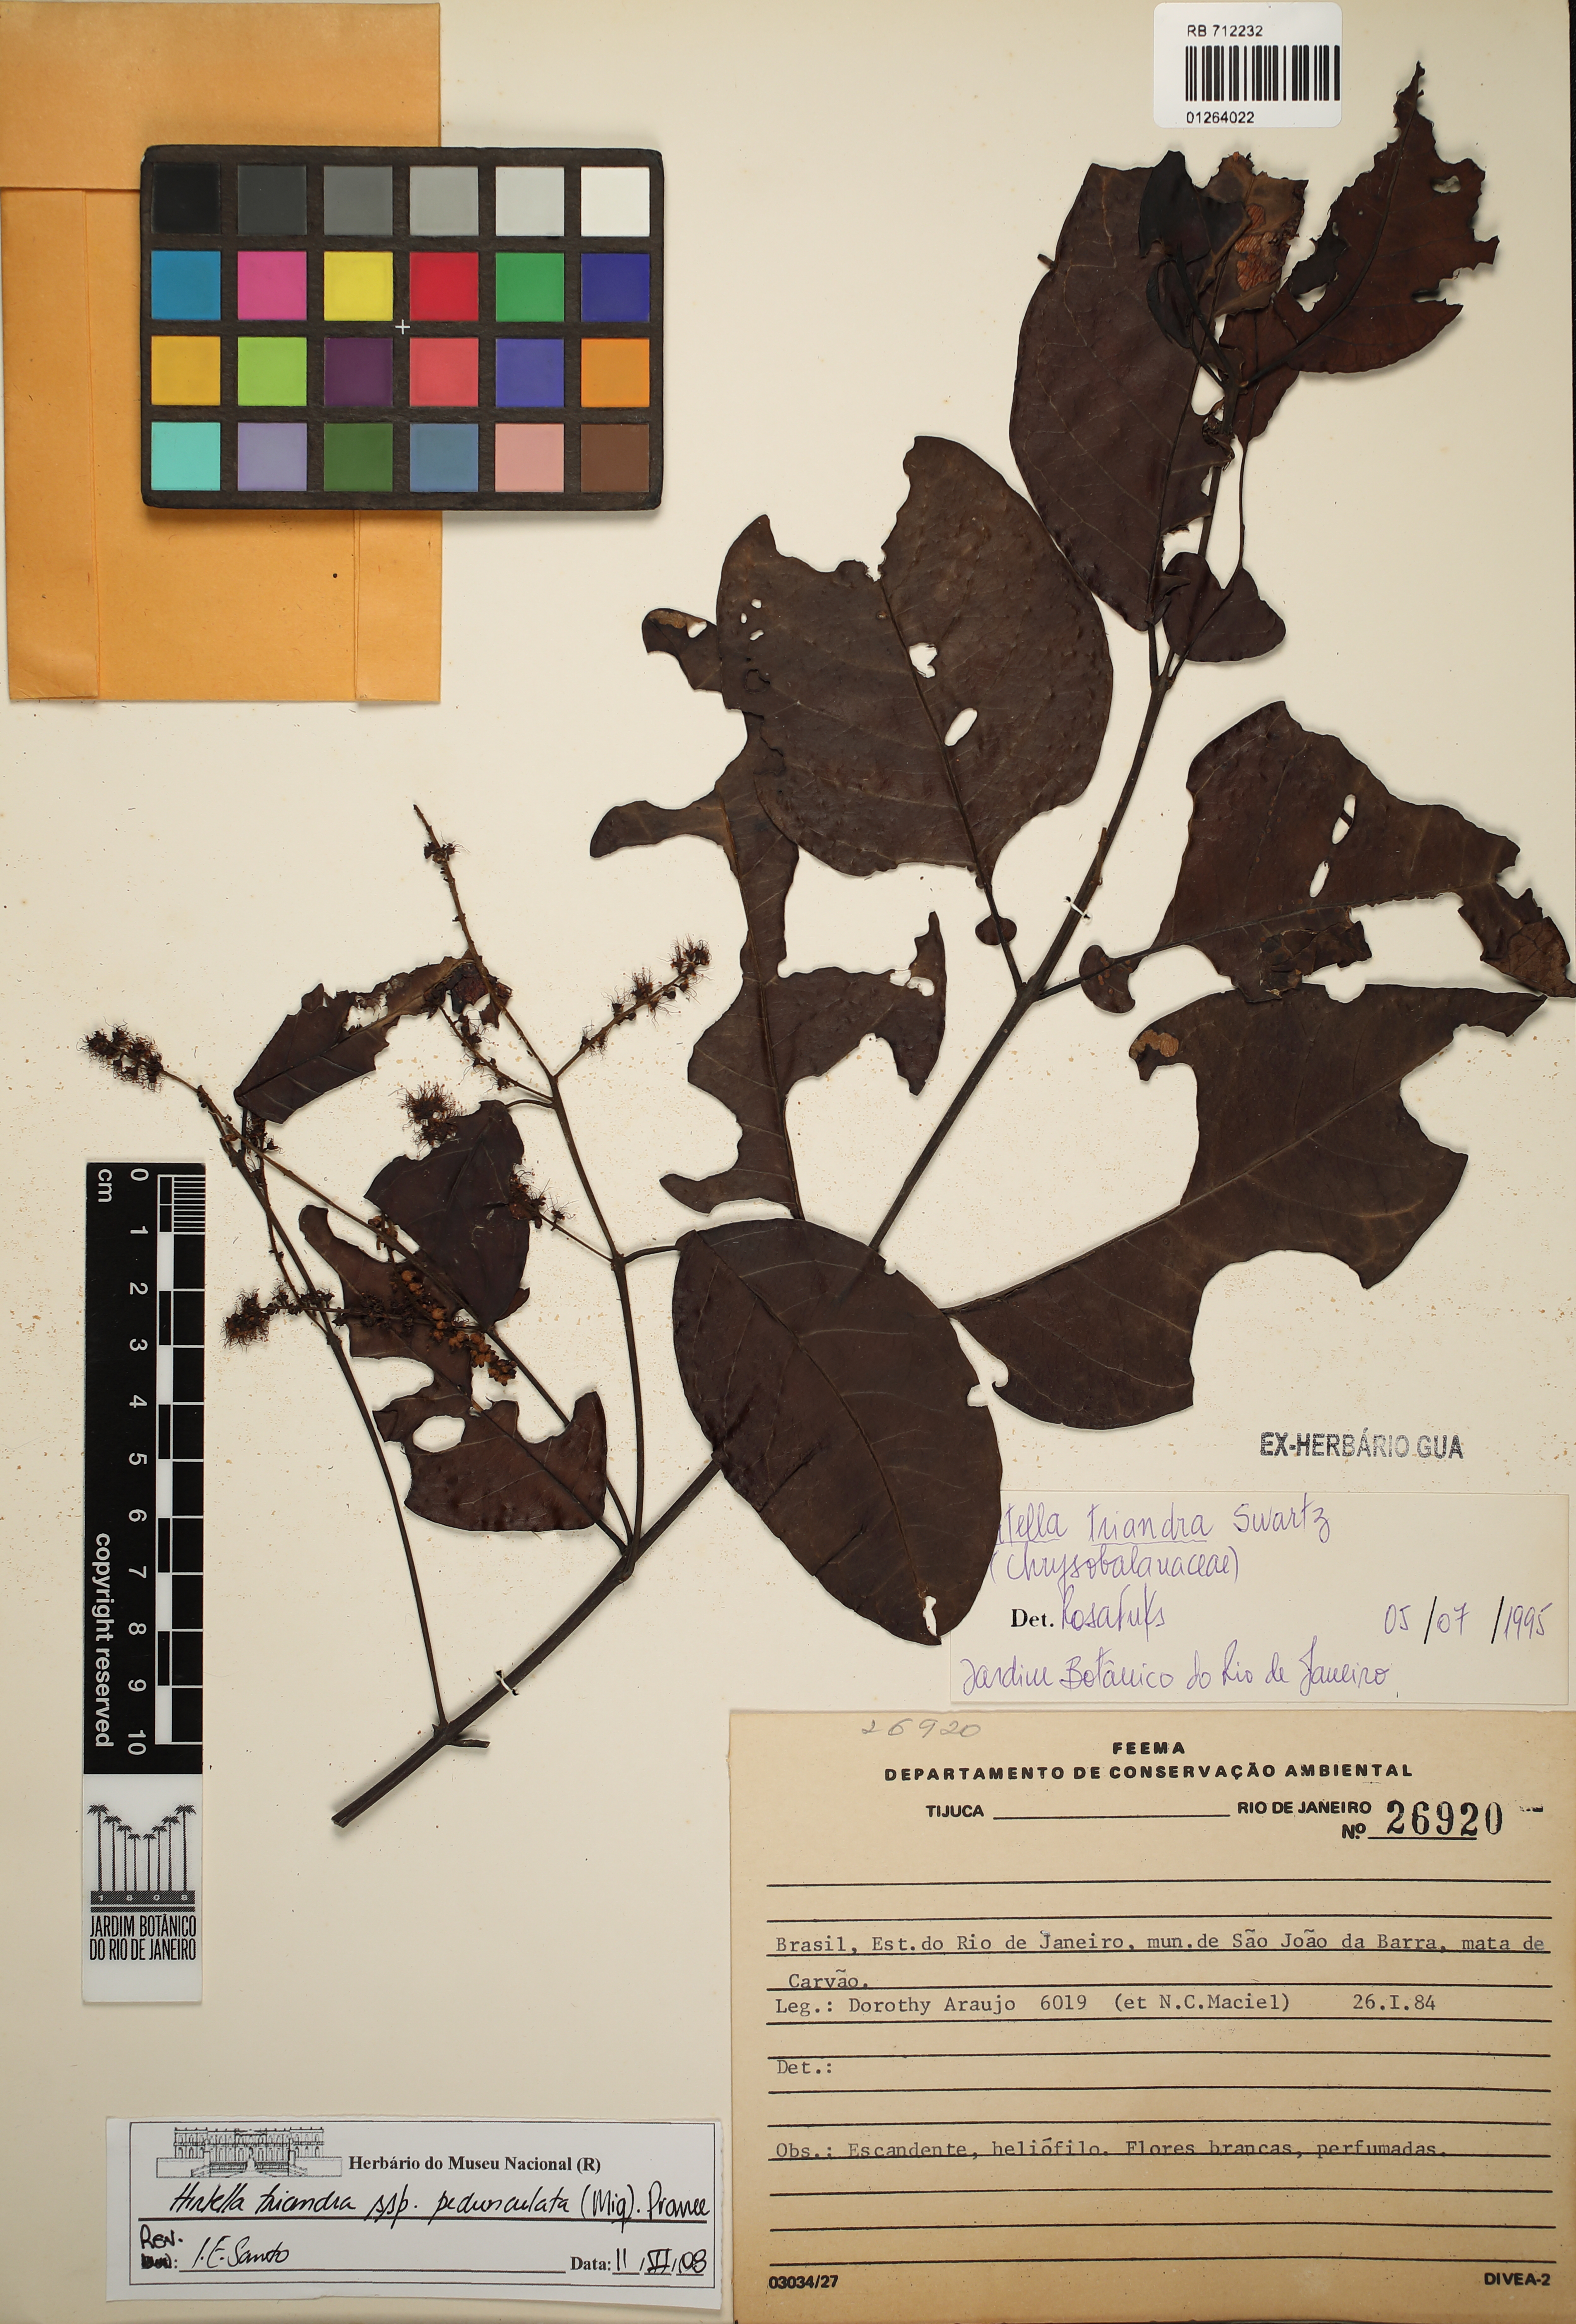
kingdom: Plantae
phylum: Tracheophyta
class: Magnoliopsida
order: Malpighiales
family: Chrysobalanaceae
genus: Hirtella
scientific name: Hirtella triandra
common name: Hairy plum
